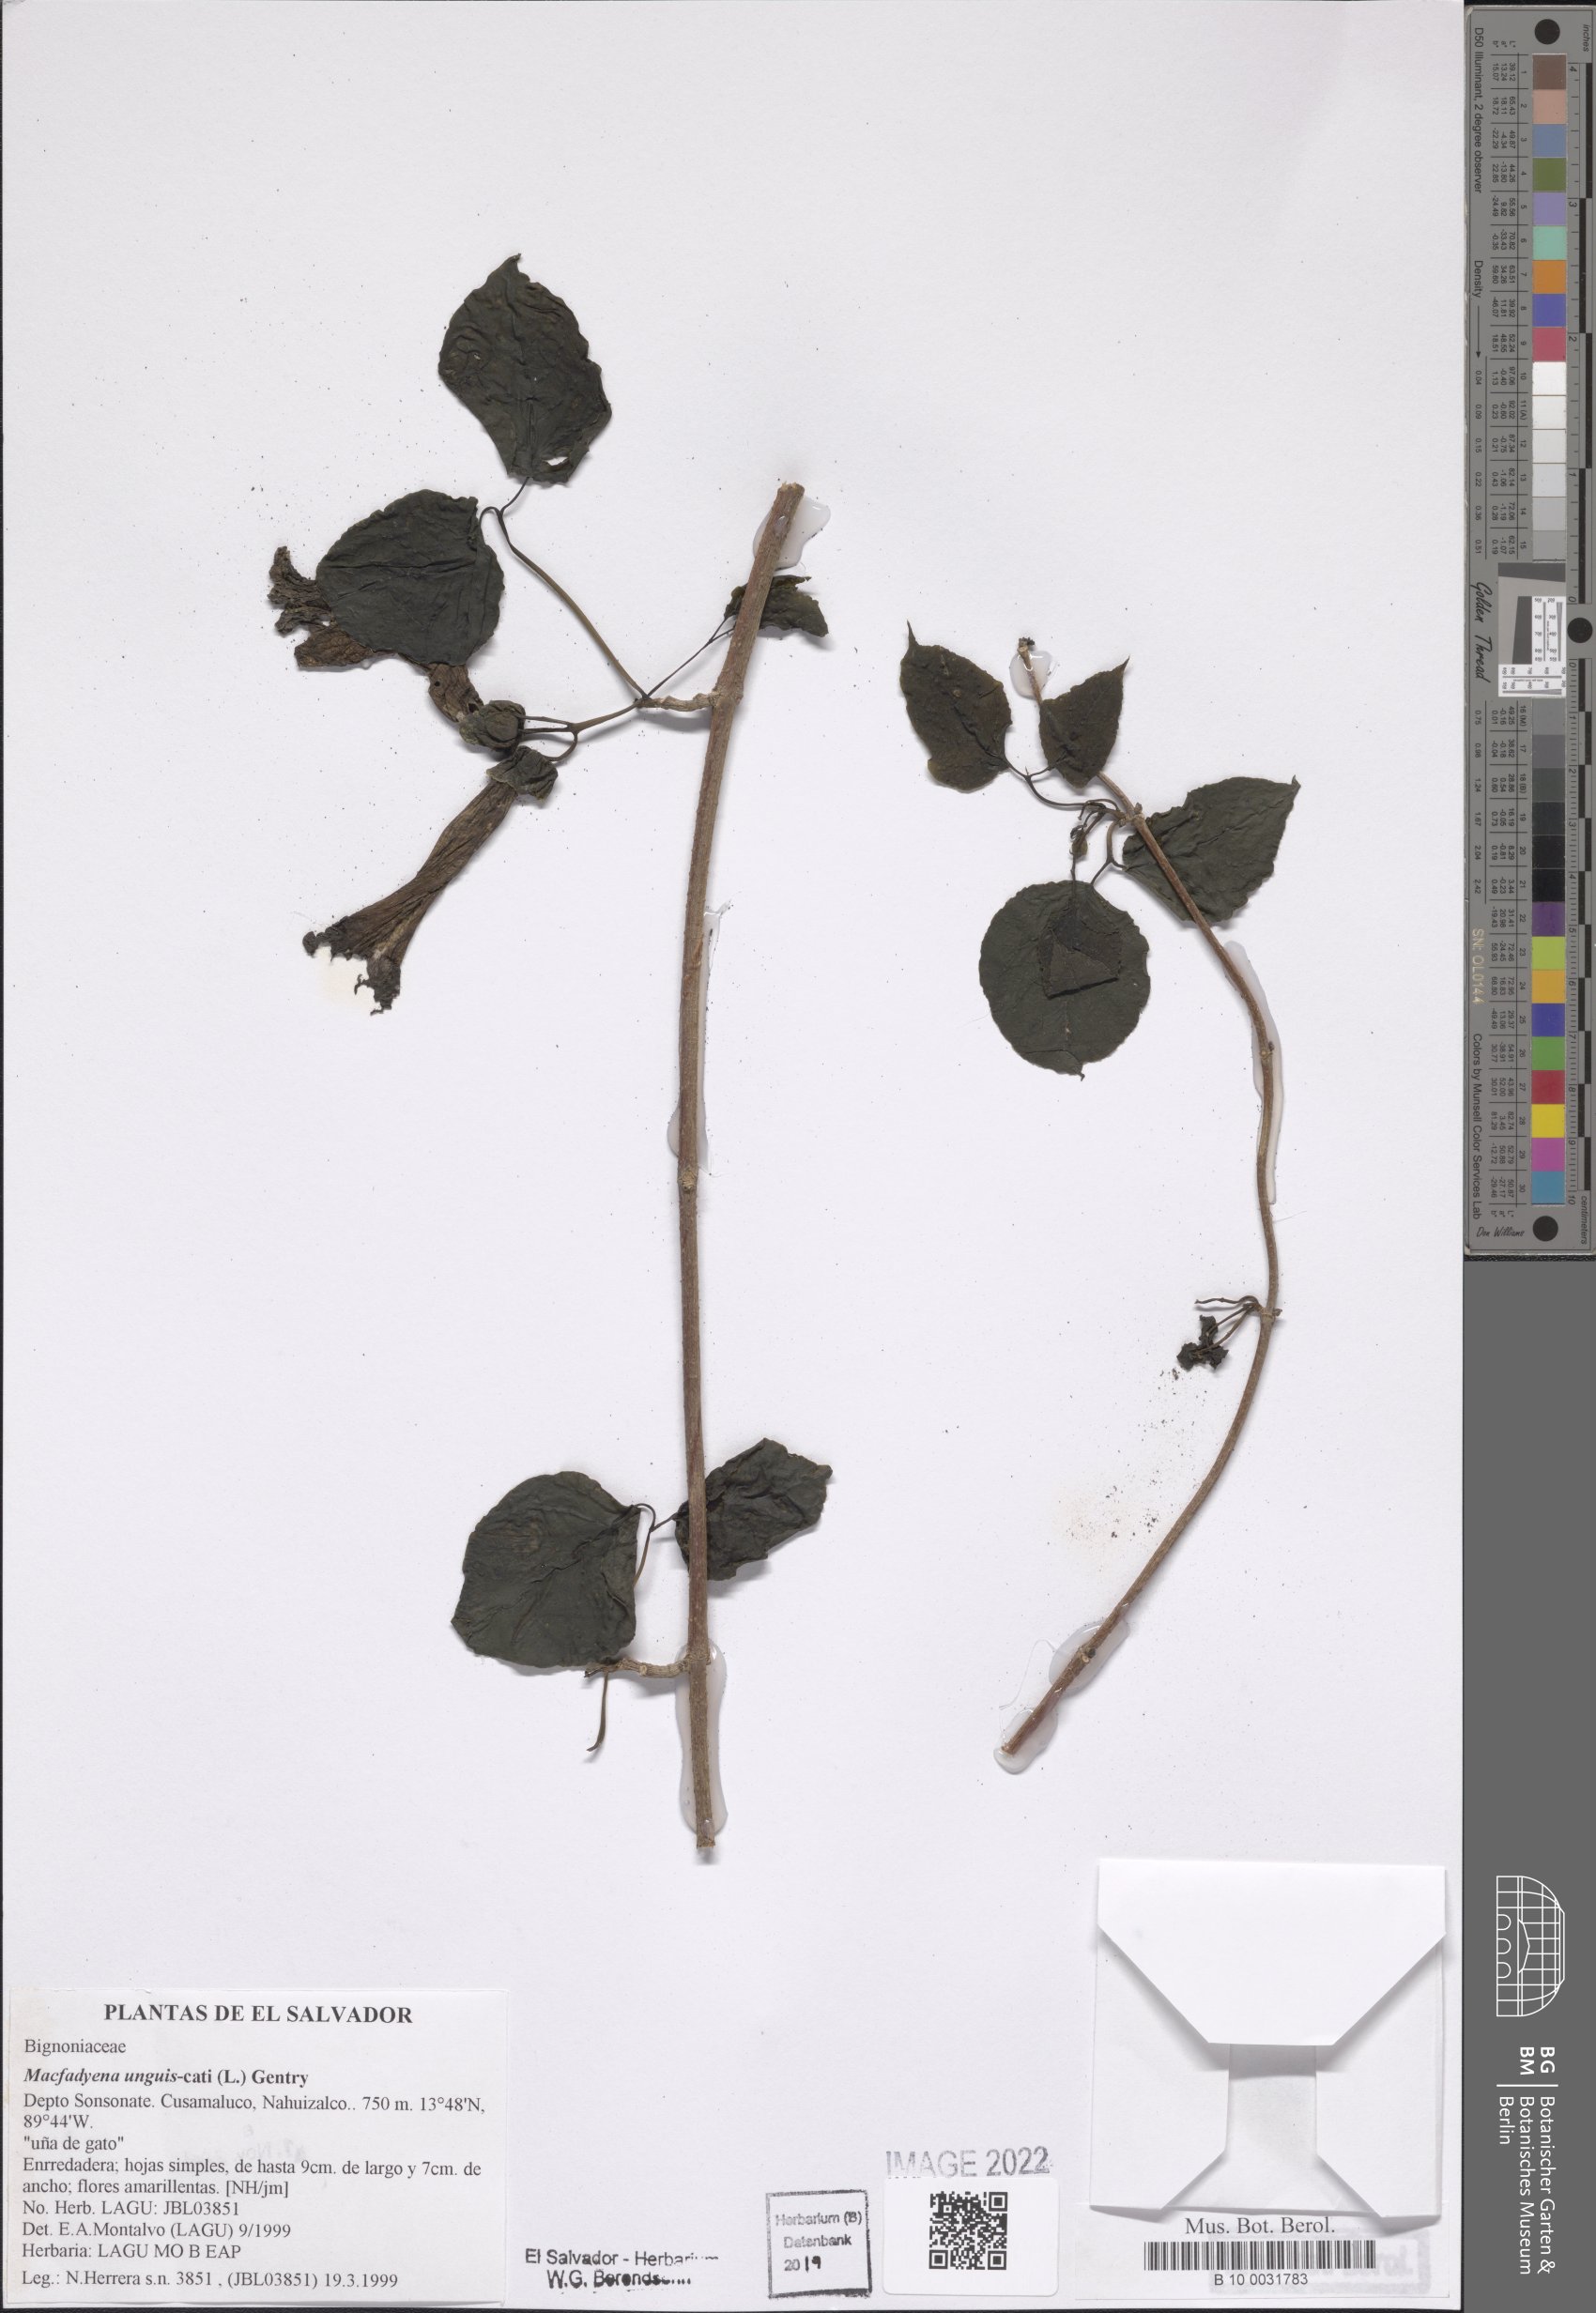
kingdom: Plantae
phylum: Tracheophyta
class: Magnoliopsida
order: Lamiales
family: Bignoniaceae
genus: Dolichandra
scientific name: Dolichandra unguis-cati
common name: Catclaw vine
